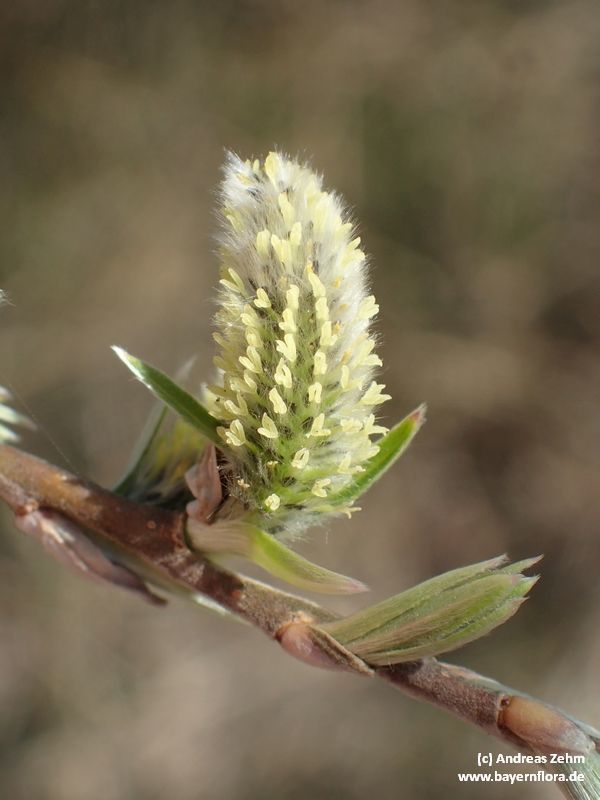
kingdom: Plantae
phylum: Tracheophyta
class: Magnoliopsida
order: Malpighiales
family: Salicaceae
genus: Salix
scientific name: Salix viminalis
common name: Osier
